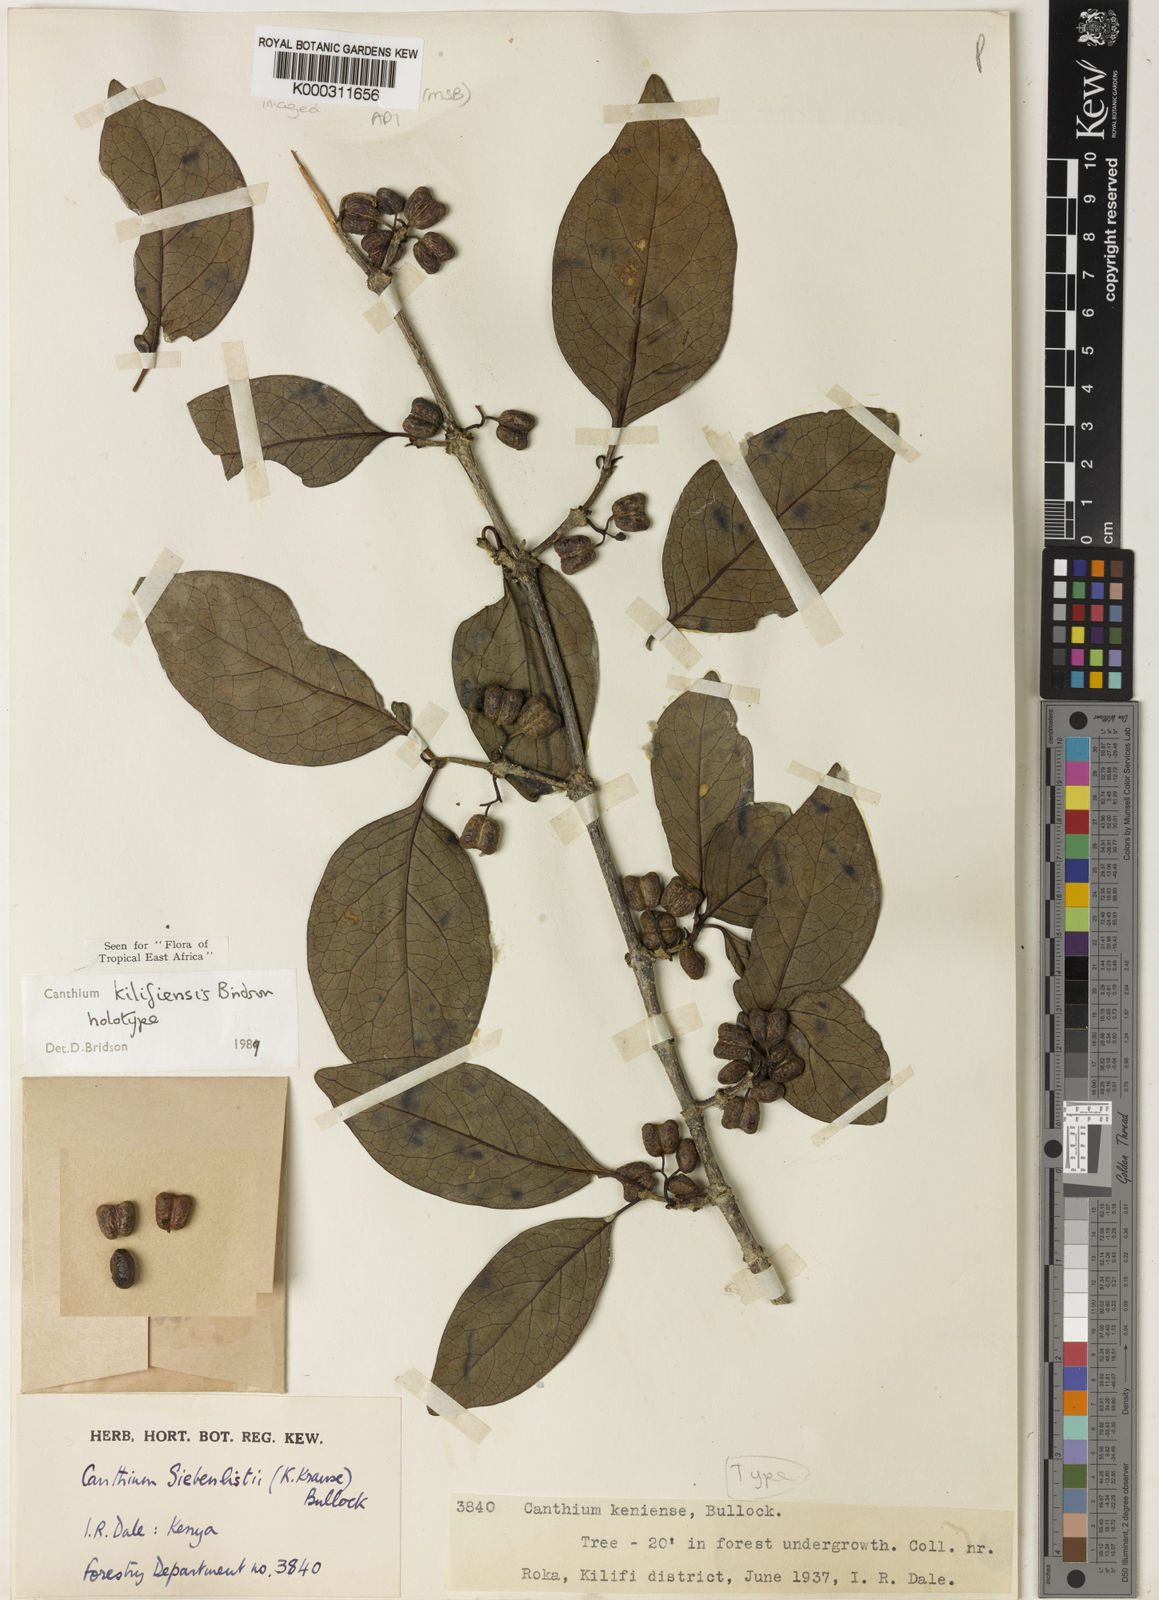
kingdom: Plantae
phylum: Tracheophyta
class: Magnoliopsida
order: Gentianales
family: Rubiaceae
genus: Afrocanthium
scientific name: Afrocanthium kilifiense
